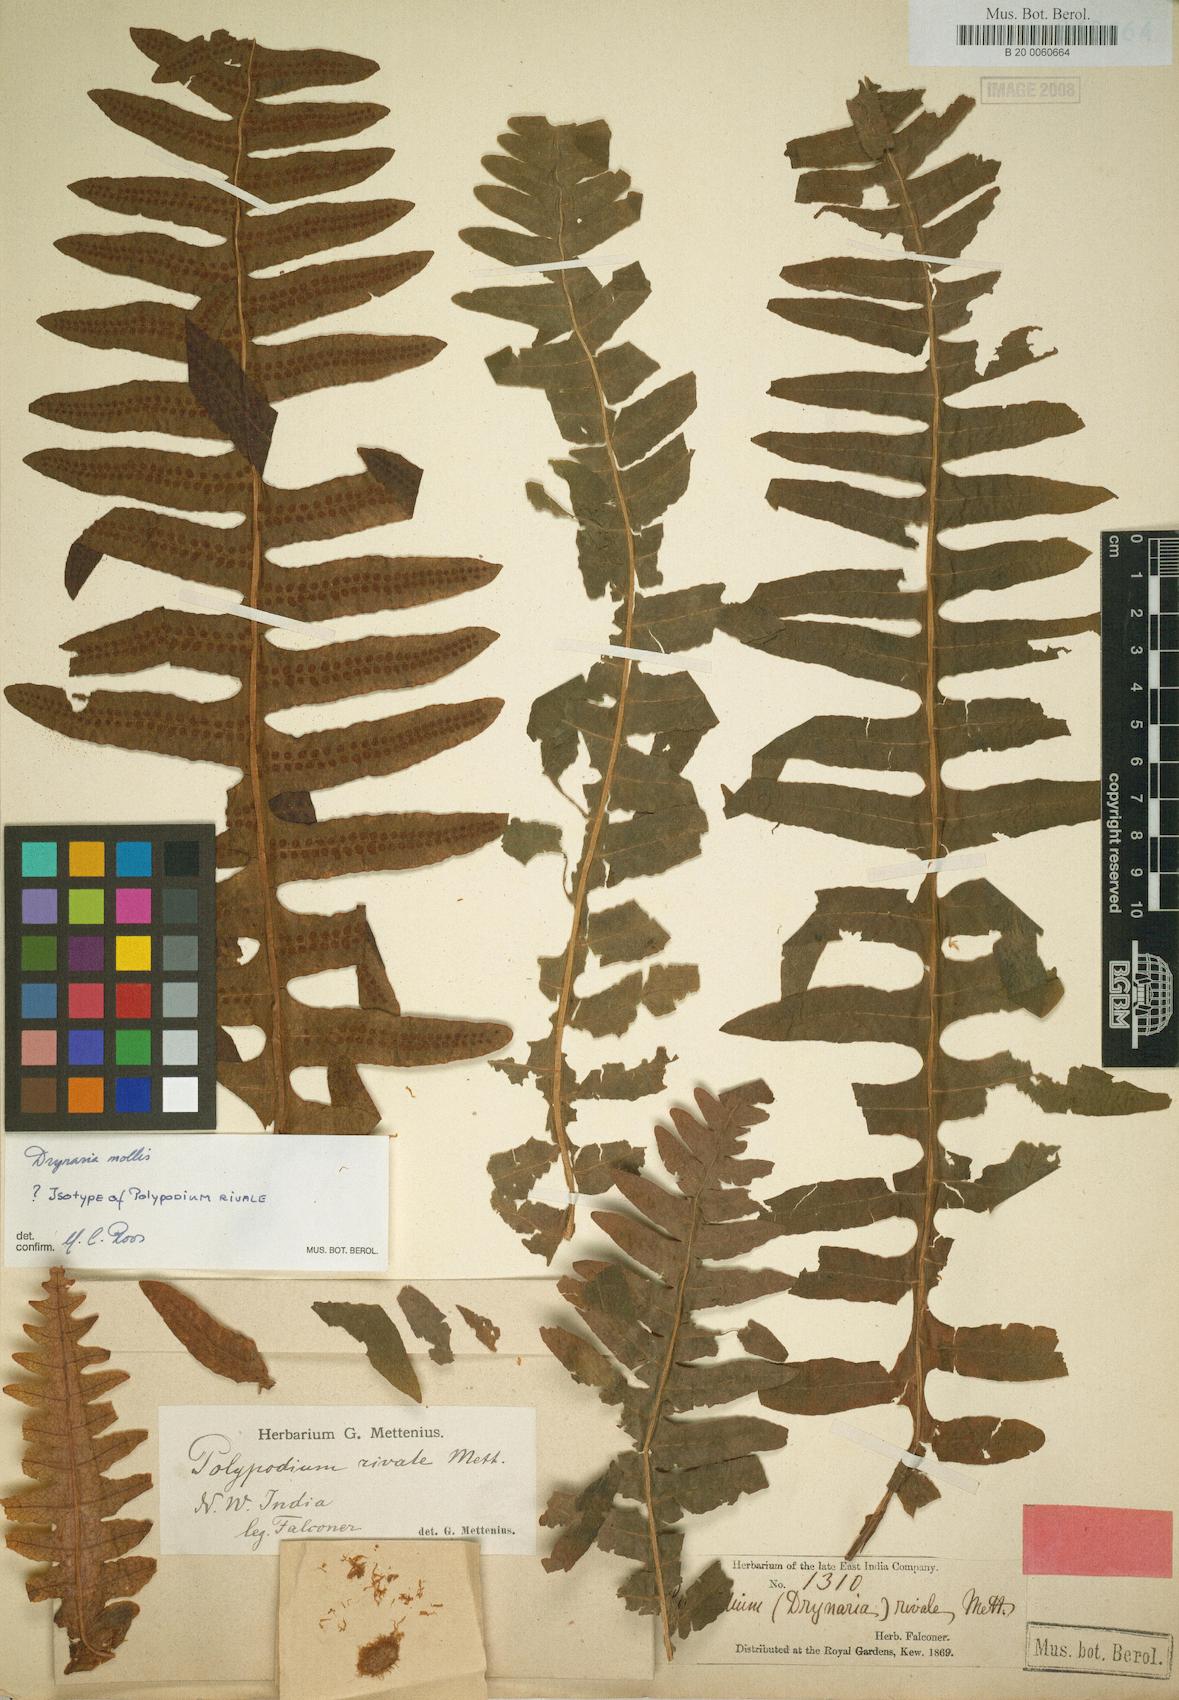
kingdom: Plantae
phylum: Tracheophyta
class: Polypodiopsida
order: Polypodiales
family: Polypodiaceae
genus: Drynaria
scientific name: Drynaria mollis
